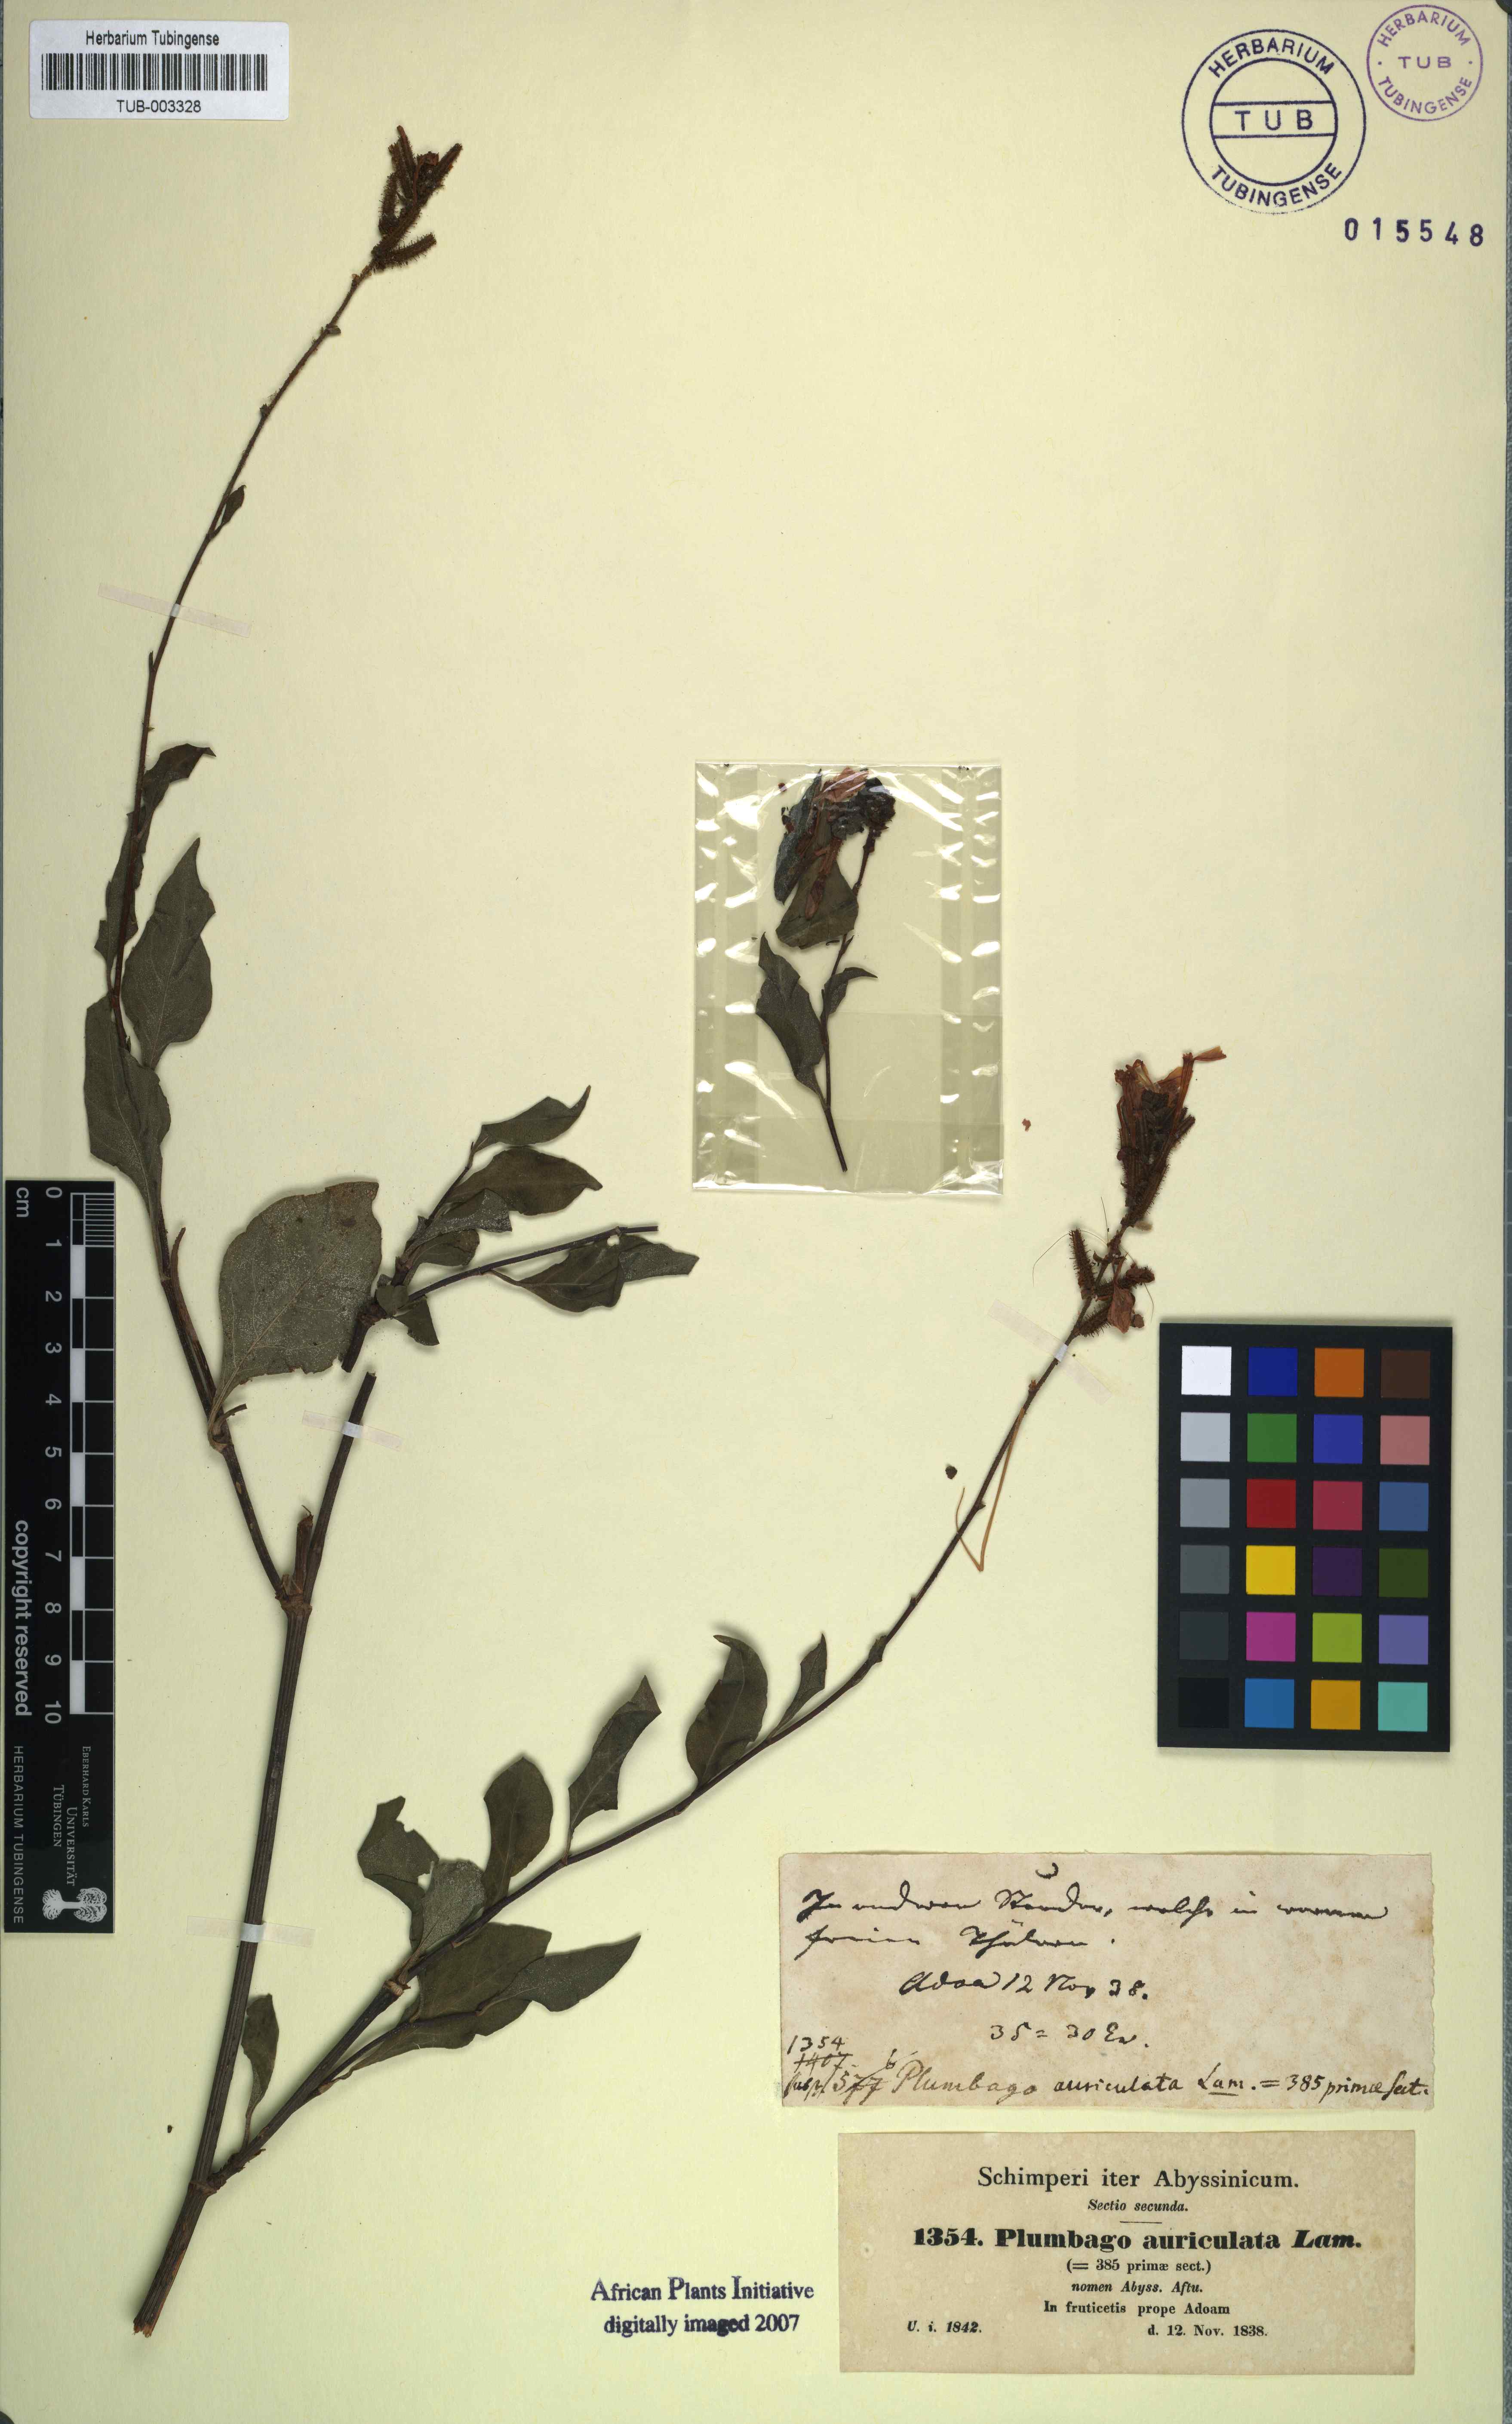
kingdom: Plantae
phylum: Tracheophyta
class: Magnoliopsida
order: Caryophyllales
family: Plumbaginaceae
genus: Plumbago
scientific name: Plumbago auriculata
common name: Cape leadwort
